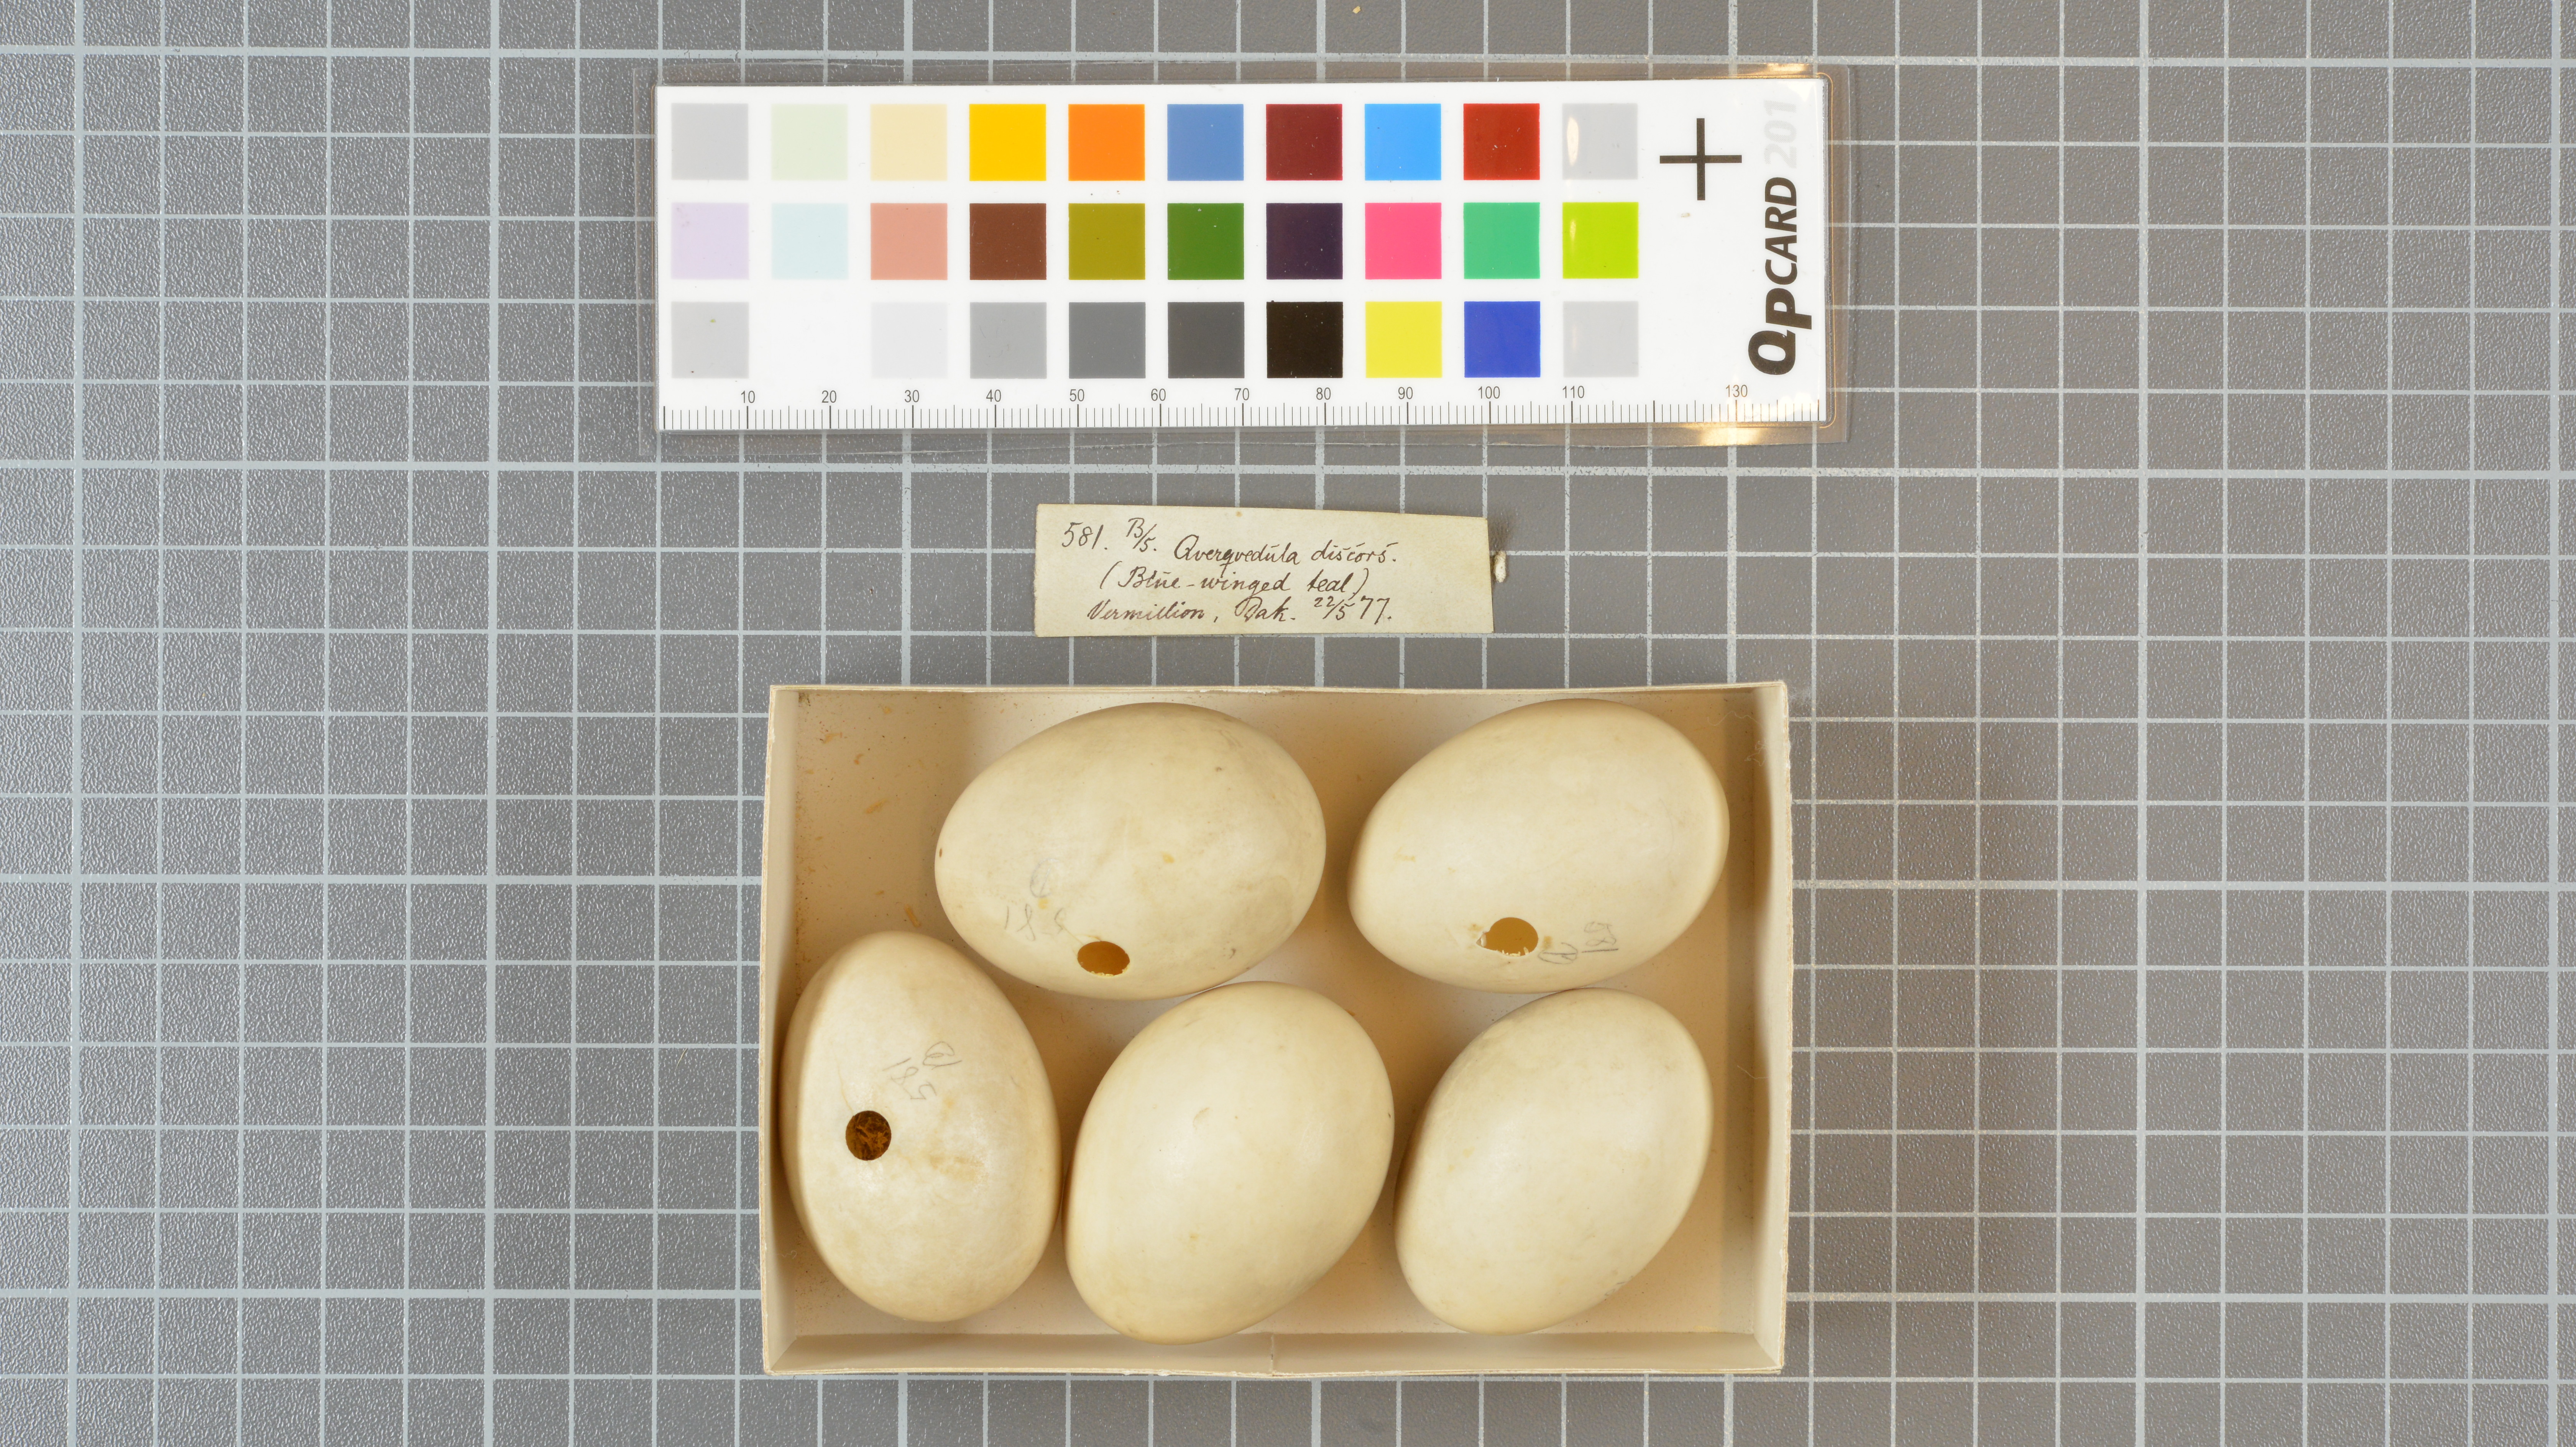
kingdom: Animalia
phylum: Chordata
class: Aves
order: Anseriformes
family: Anatidae
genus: Spatula
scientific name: Spatula discors
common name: Blue-winged teal
